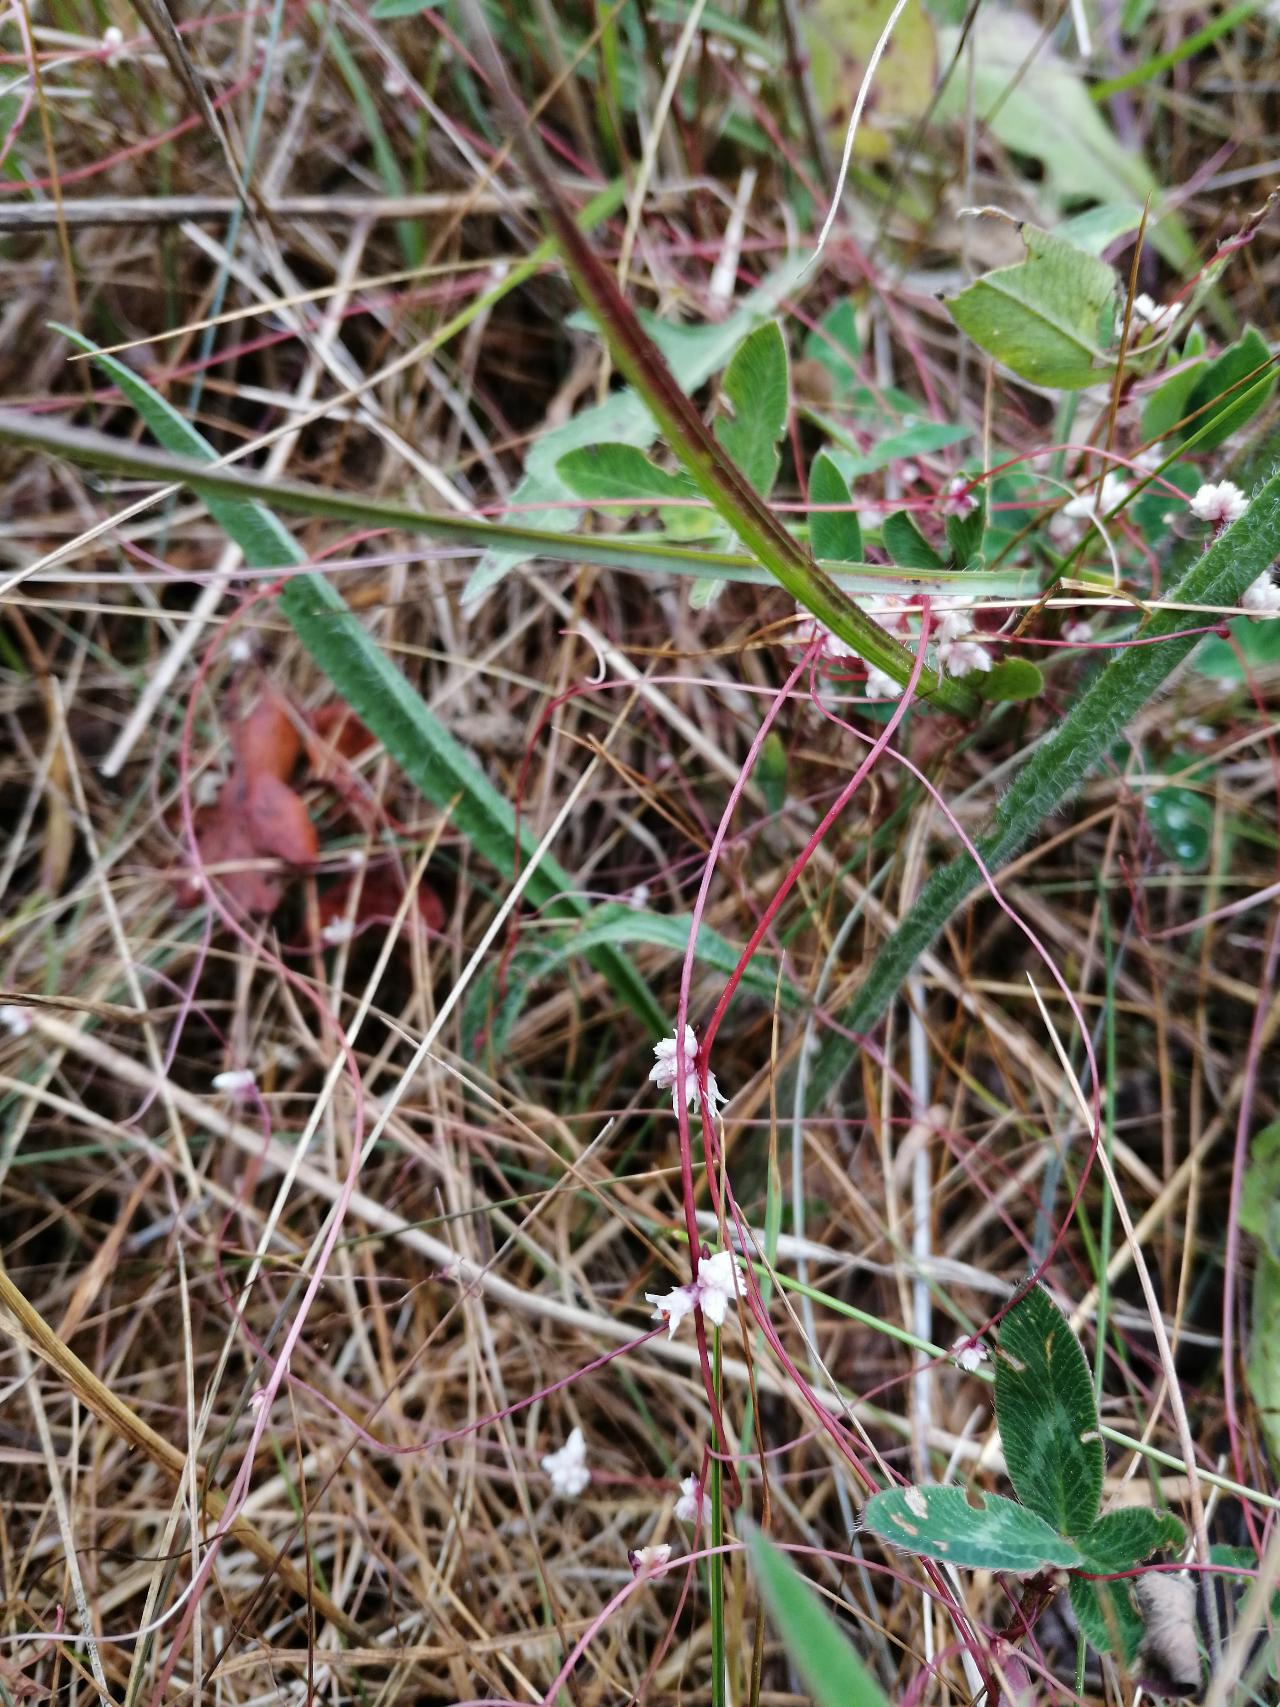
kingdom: Plantae
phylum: Tracheophyta
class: Magnoliopsida
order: Solanales
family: Convolvulaceae
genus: Cuscuta
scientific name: Cuscuta epithymum
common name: Lyng-silke
